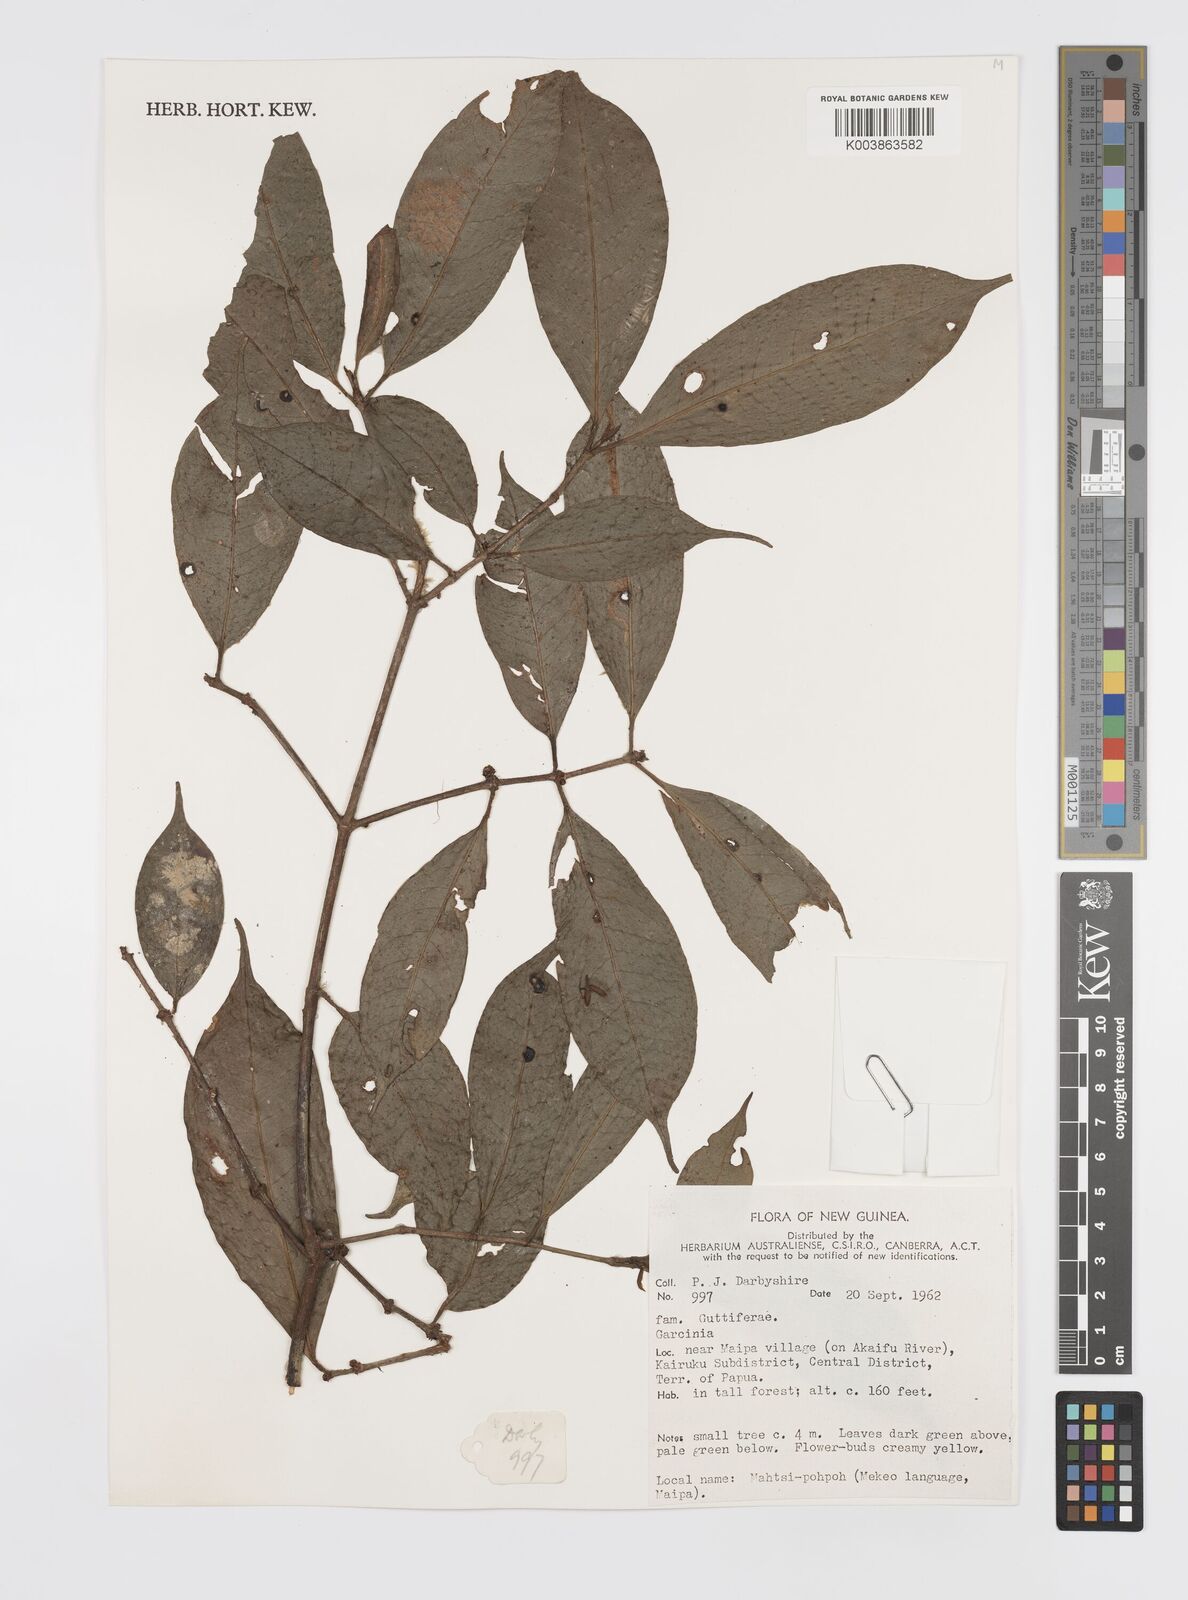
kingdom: Plantae
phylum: Tracheophyta
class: Magnoliopsida
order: Malpighiales
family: Clusiaceae
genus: Garcinia
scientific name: Garcinia
